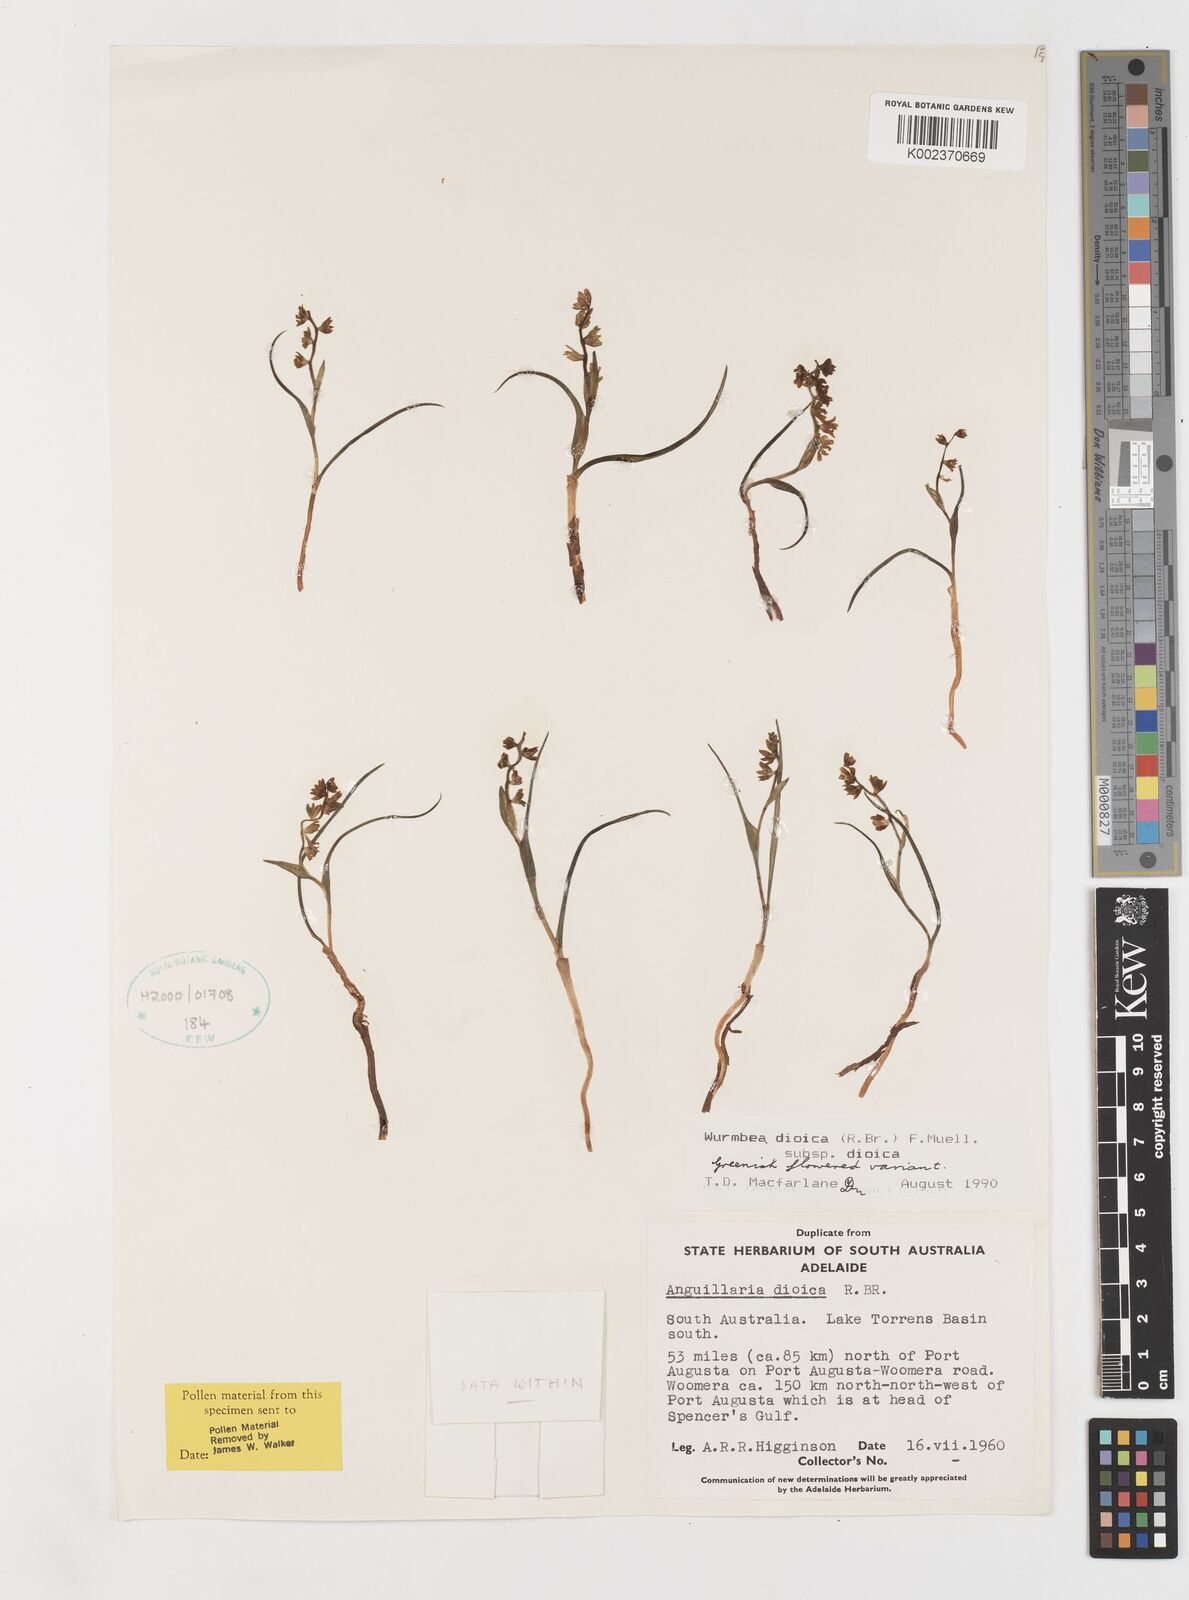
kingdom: Plantae
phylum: Tracheophyta
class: Liliopsida
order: Liliales
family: Colchicaceae
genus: Wurmbea
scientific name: Wurmbea dioica
